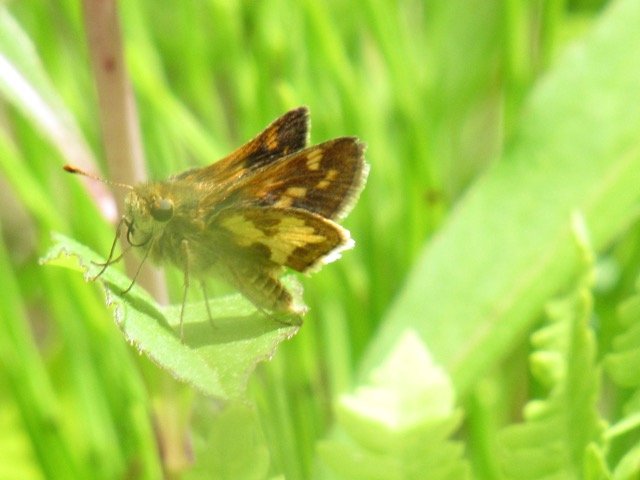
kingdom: Animalia
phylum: Arthropoda
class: Insecta
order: Lepidoptera
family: Hesperiidae
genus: Polites
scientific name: Polites coras
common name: Peck's Skipper
